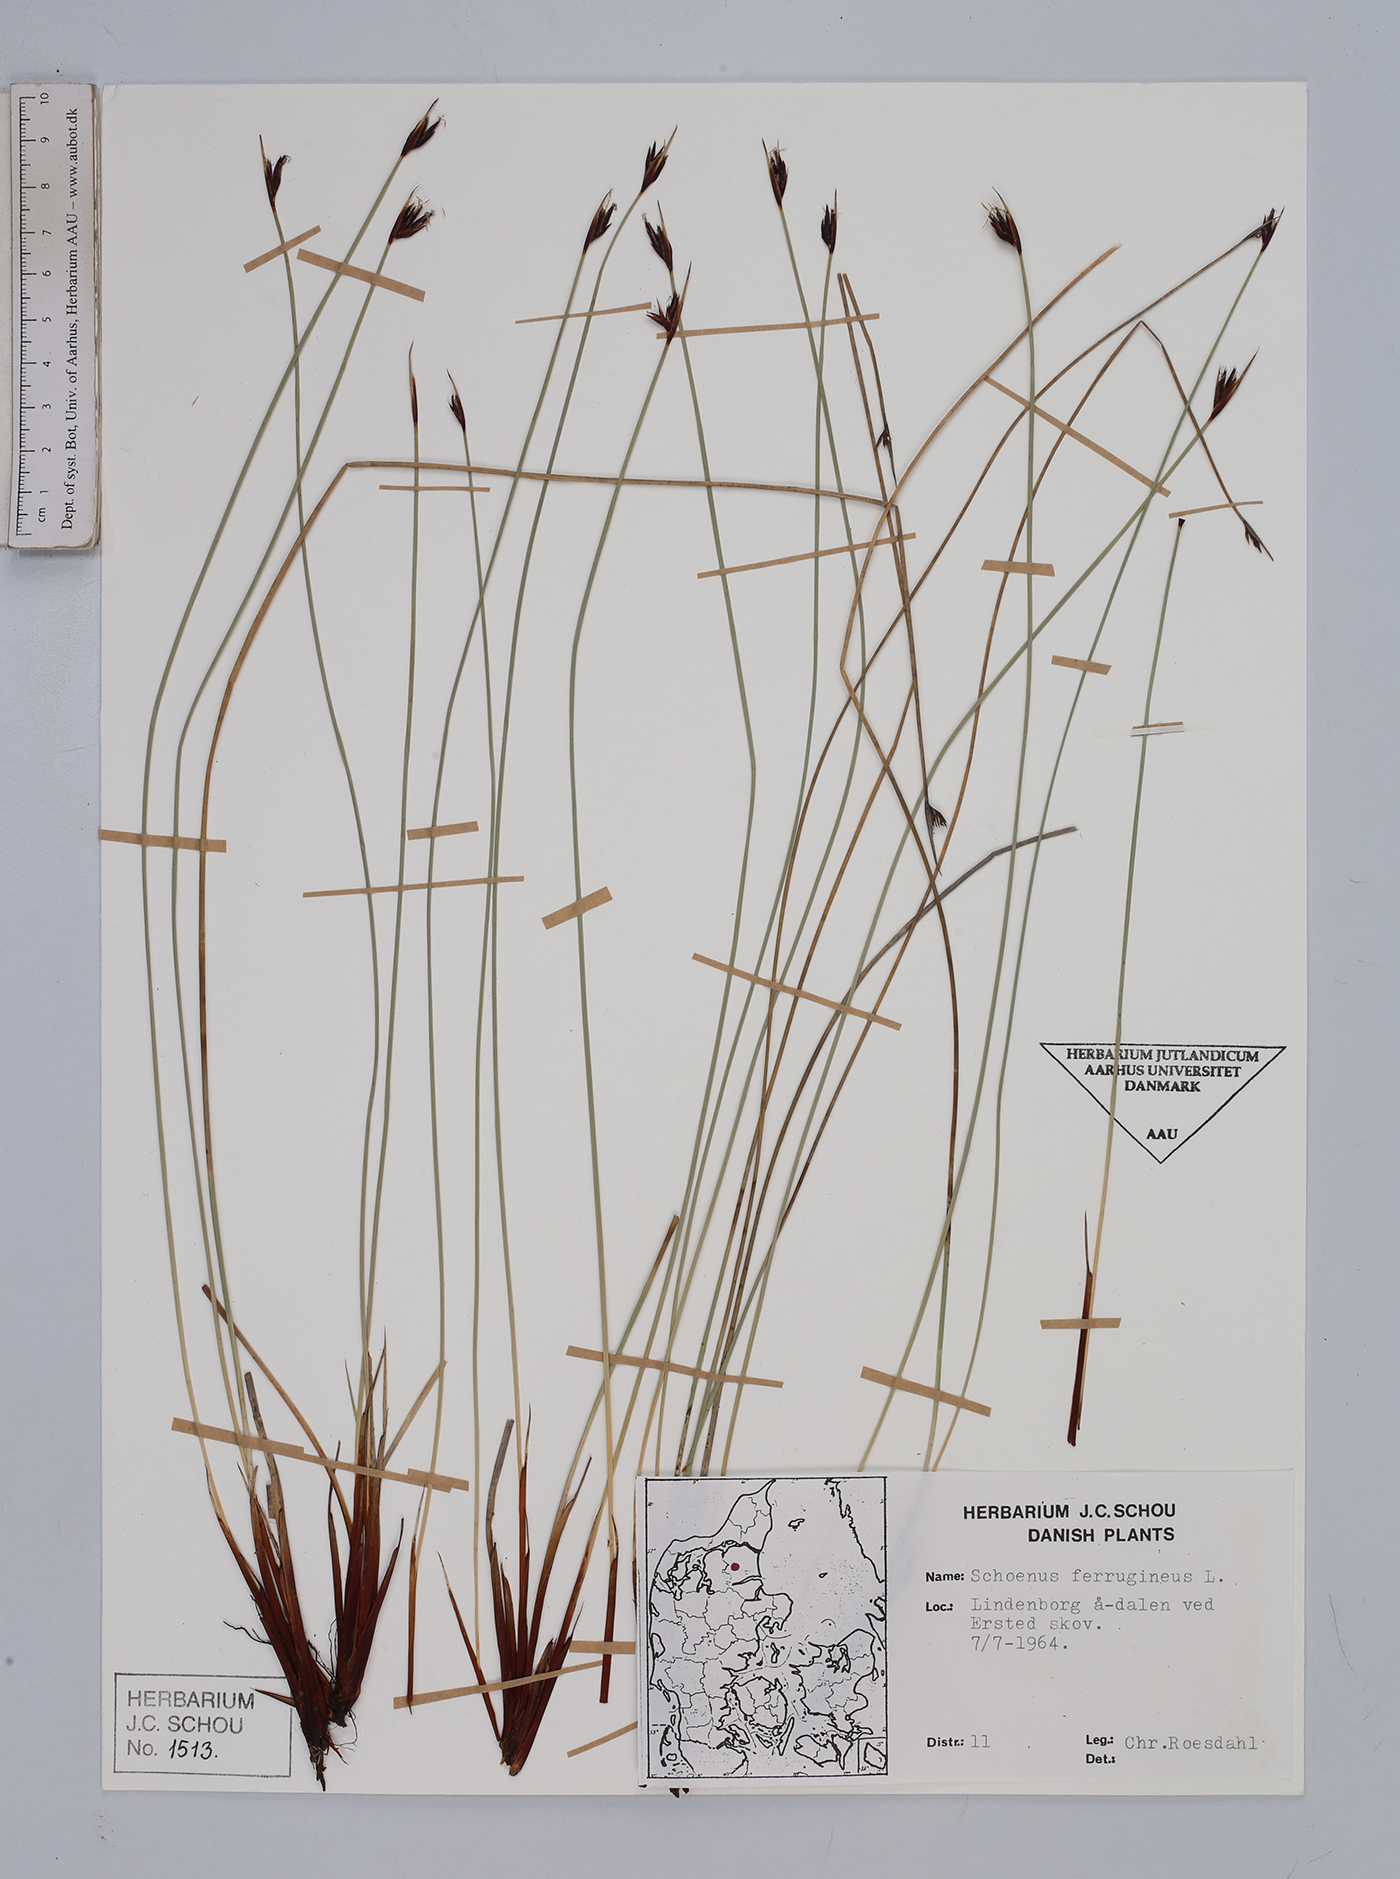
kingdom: Plantae
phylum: Tracheophyta
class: Liliopsida
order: Poales
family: Cyperaceae
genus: Schoenus
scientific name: Schoenus ferrugineus
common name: Brown bog-rush
